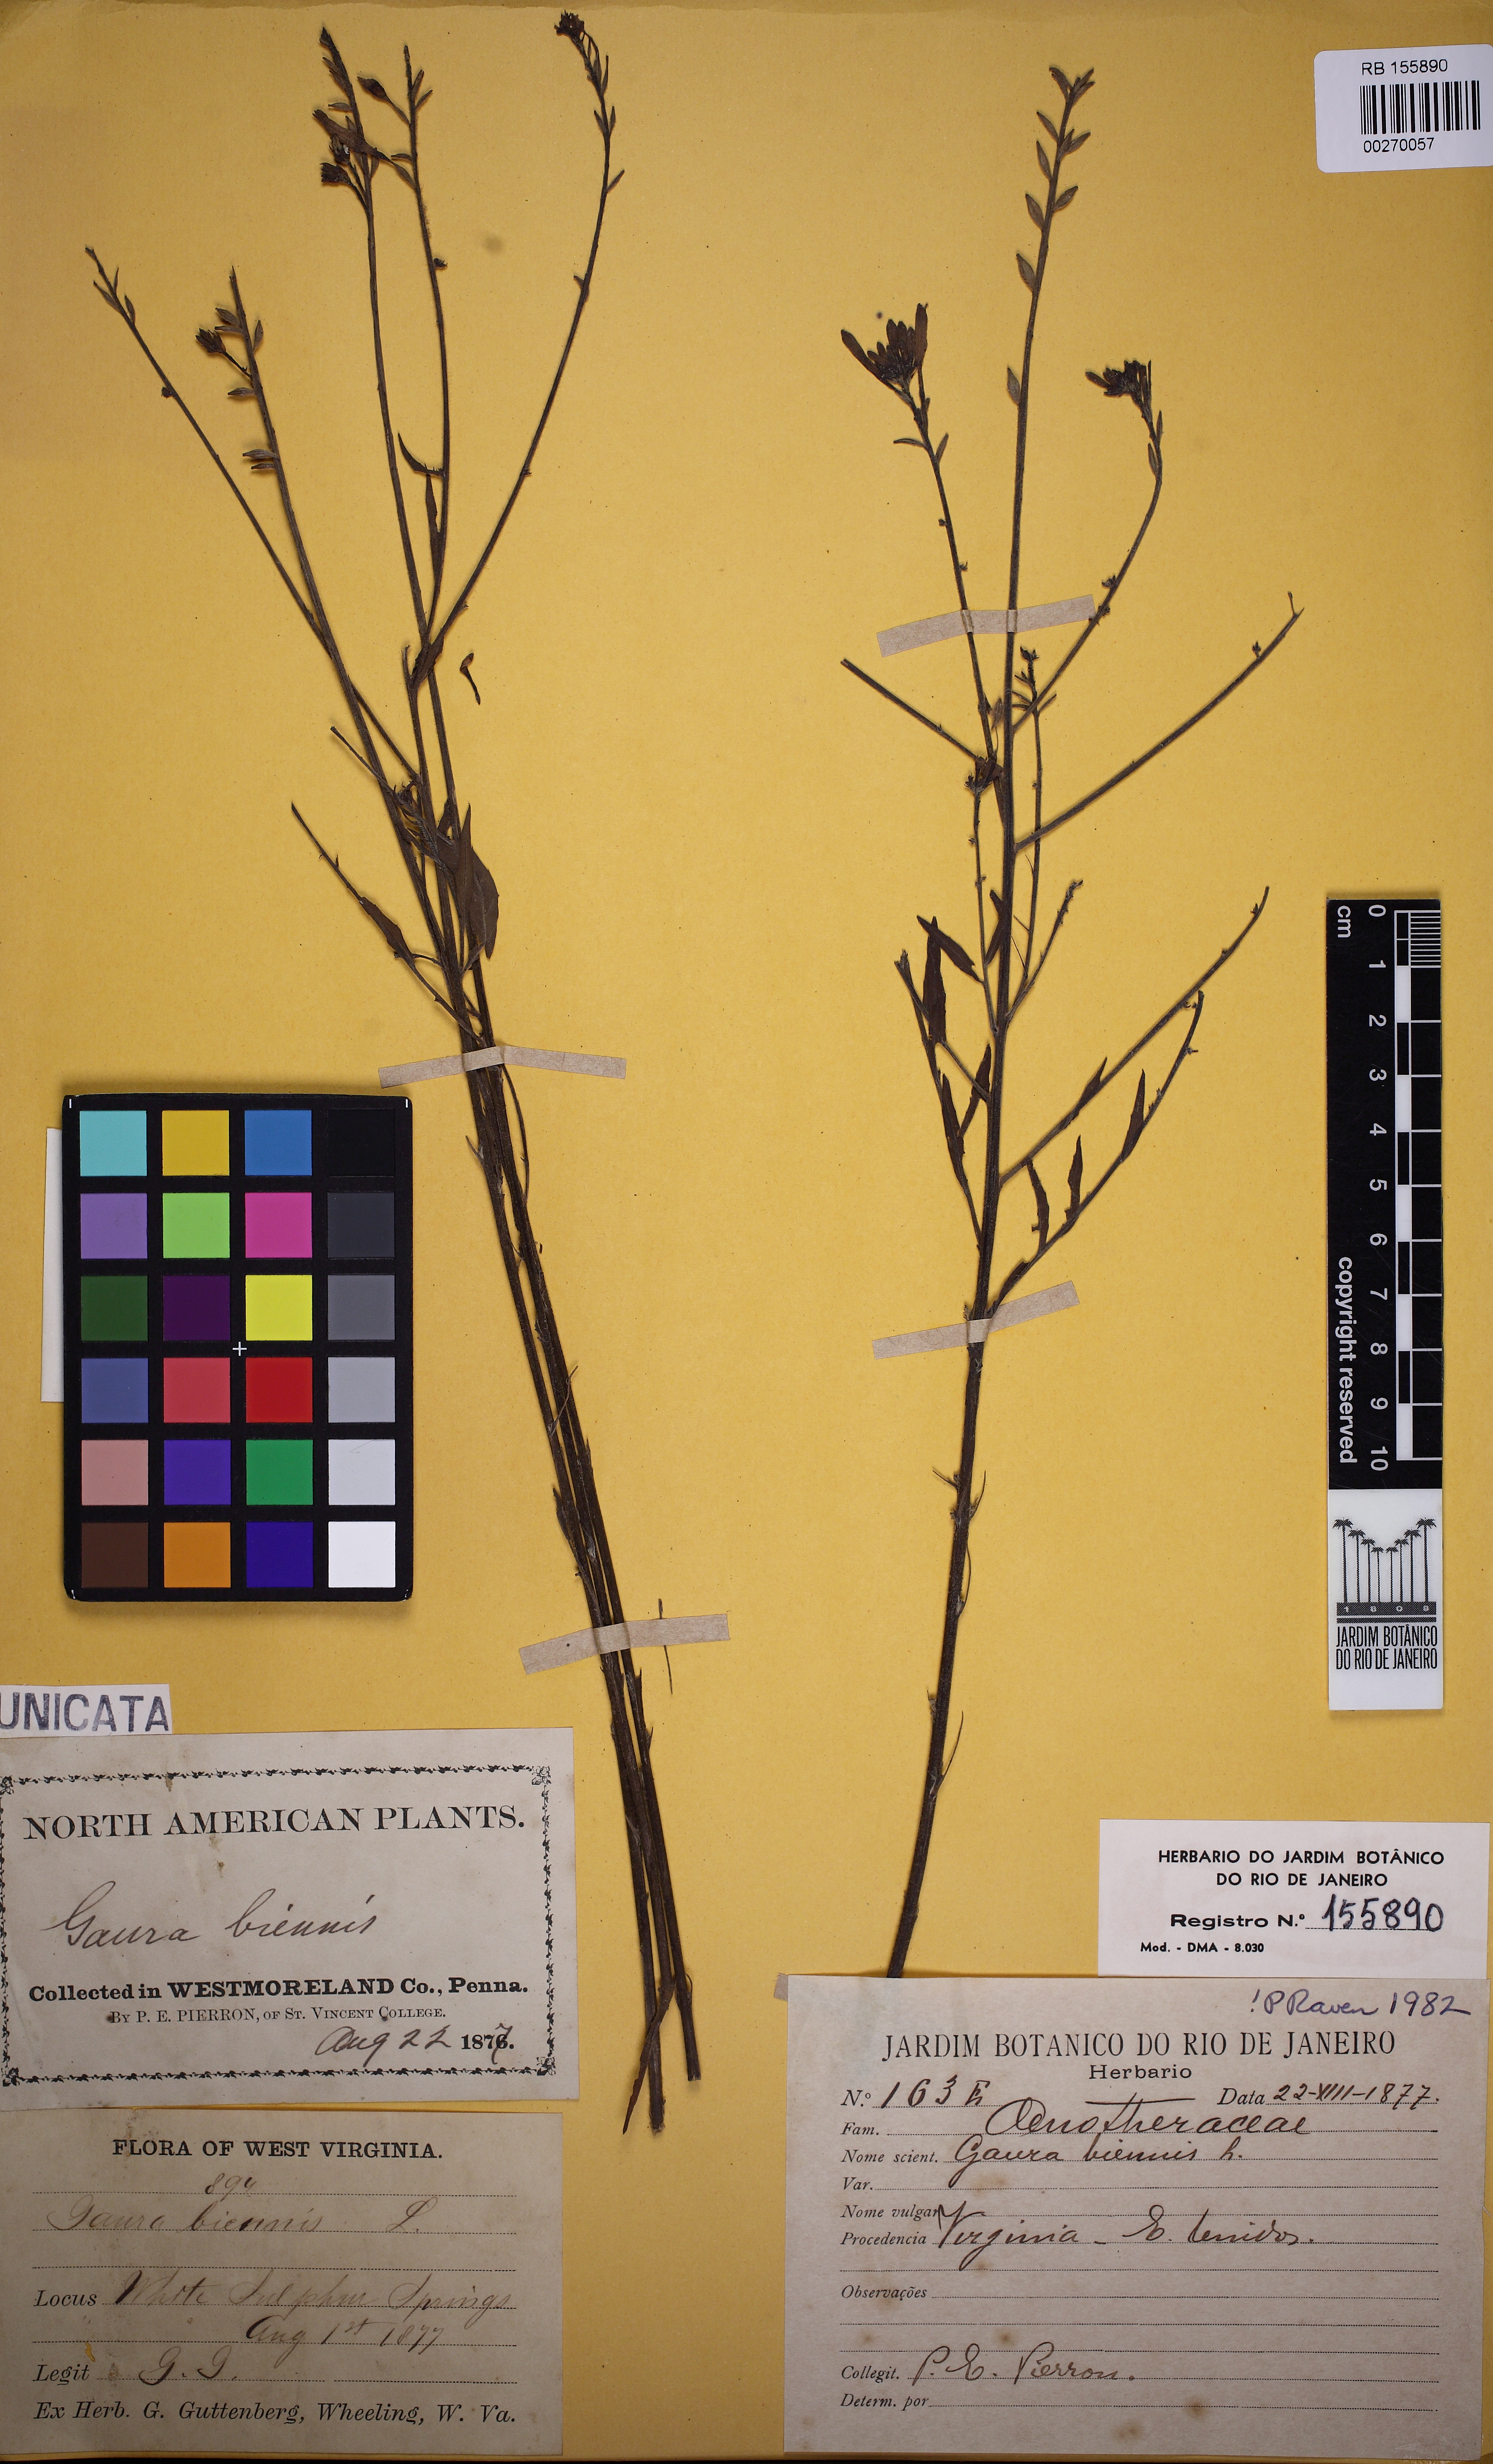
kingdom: Plantae
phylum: Tracheophyta
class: Magnoliopsida
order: Myrtales
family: Onagraceae
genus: Oenothera
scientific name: Oenothera gaura
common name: Biennial beeblossom
